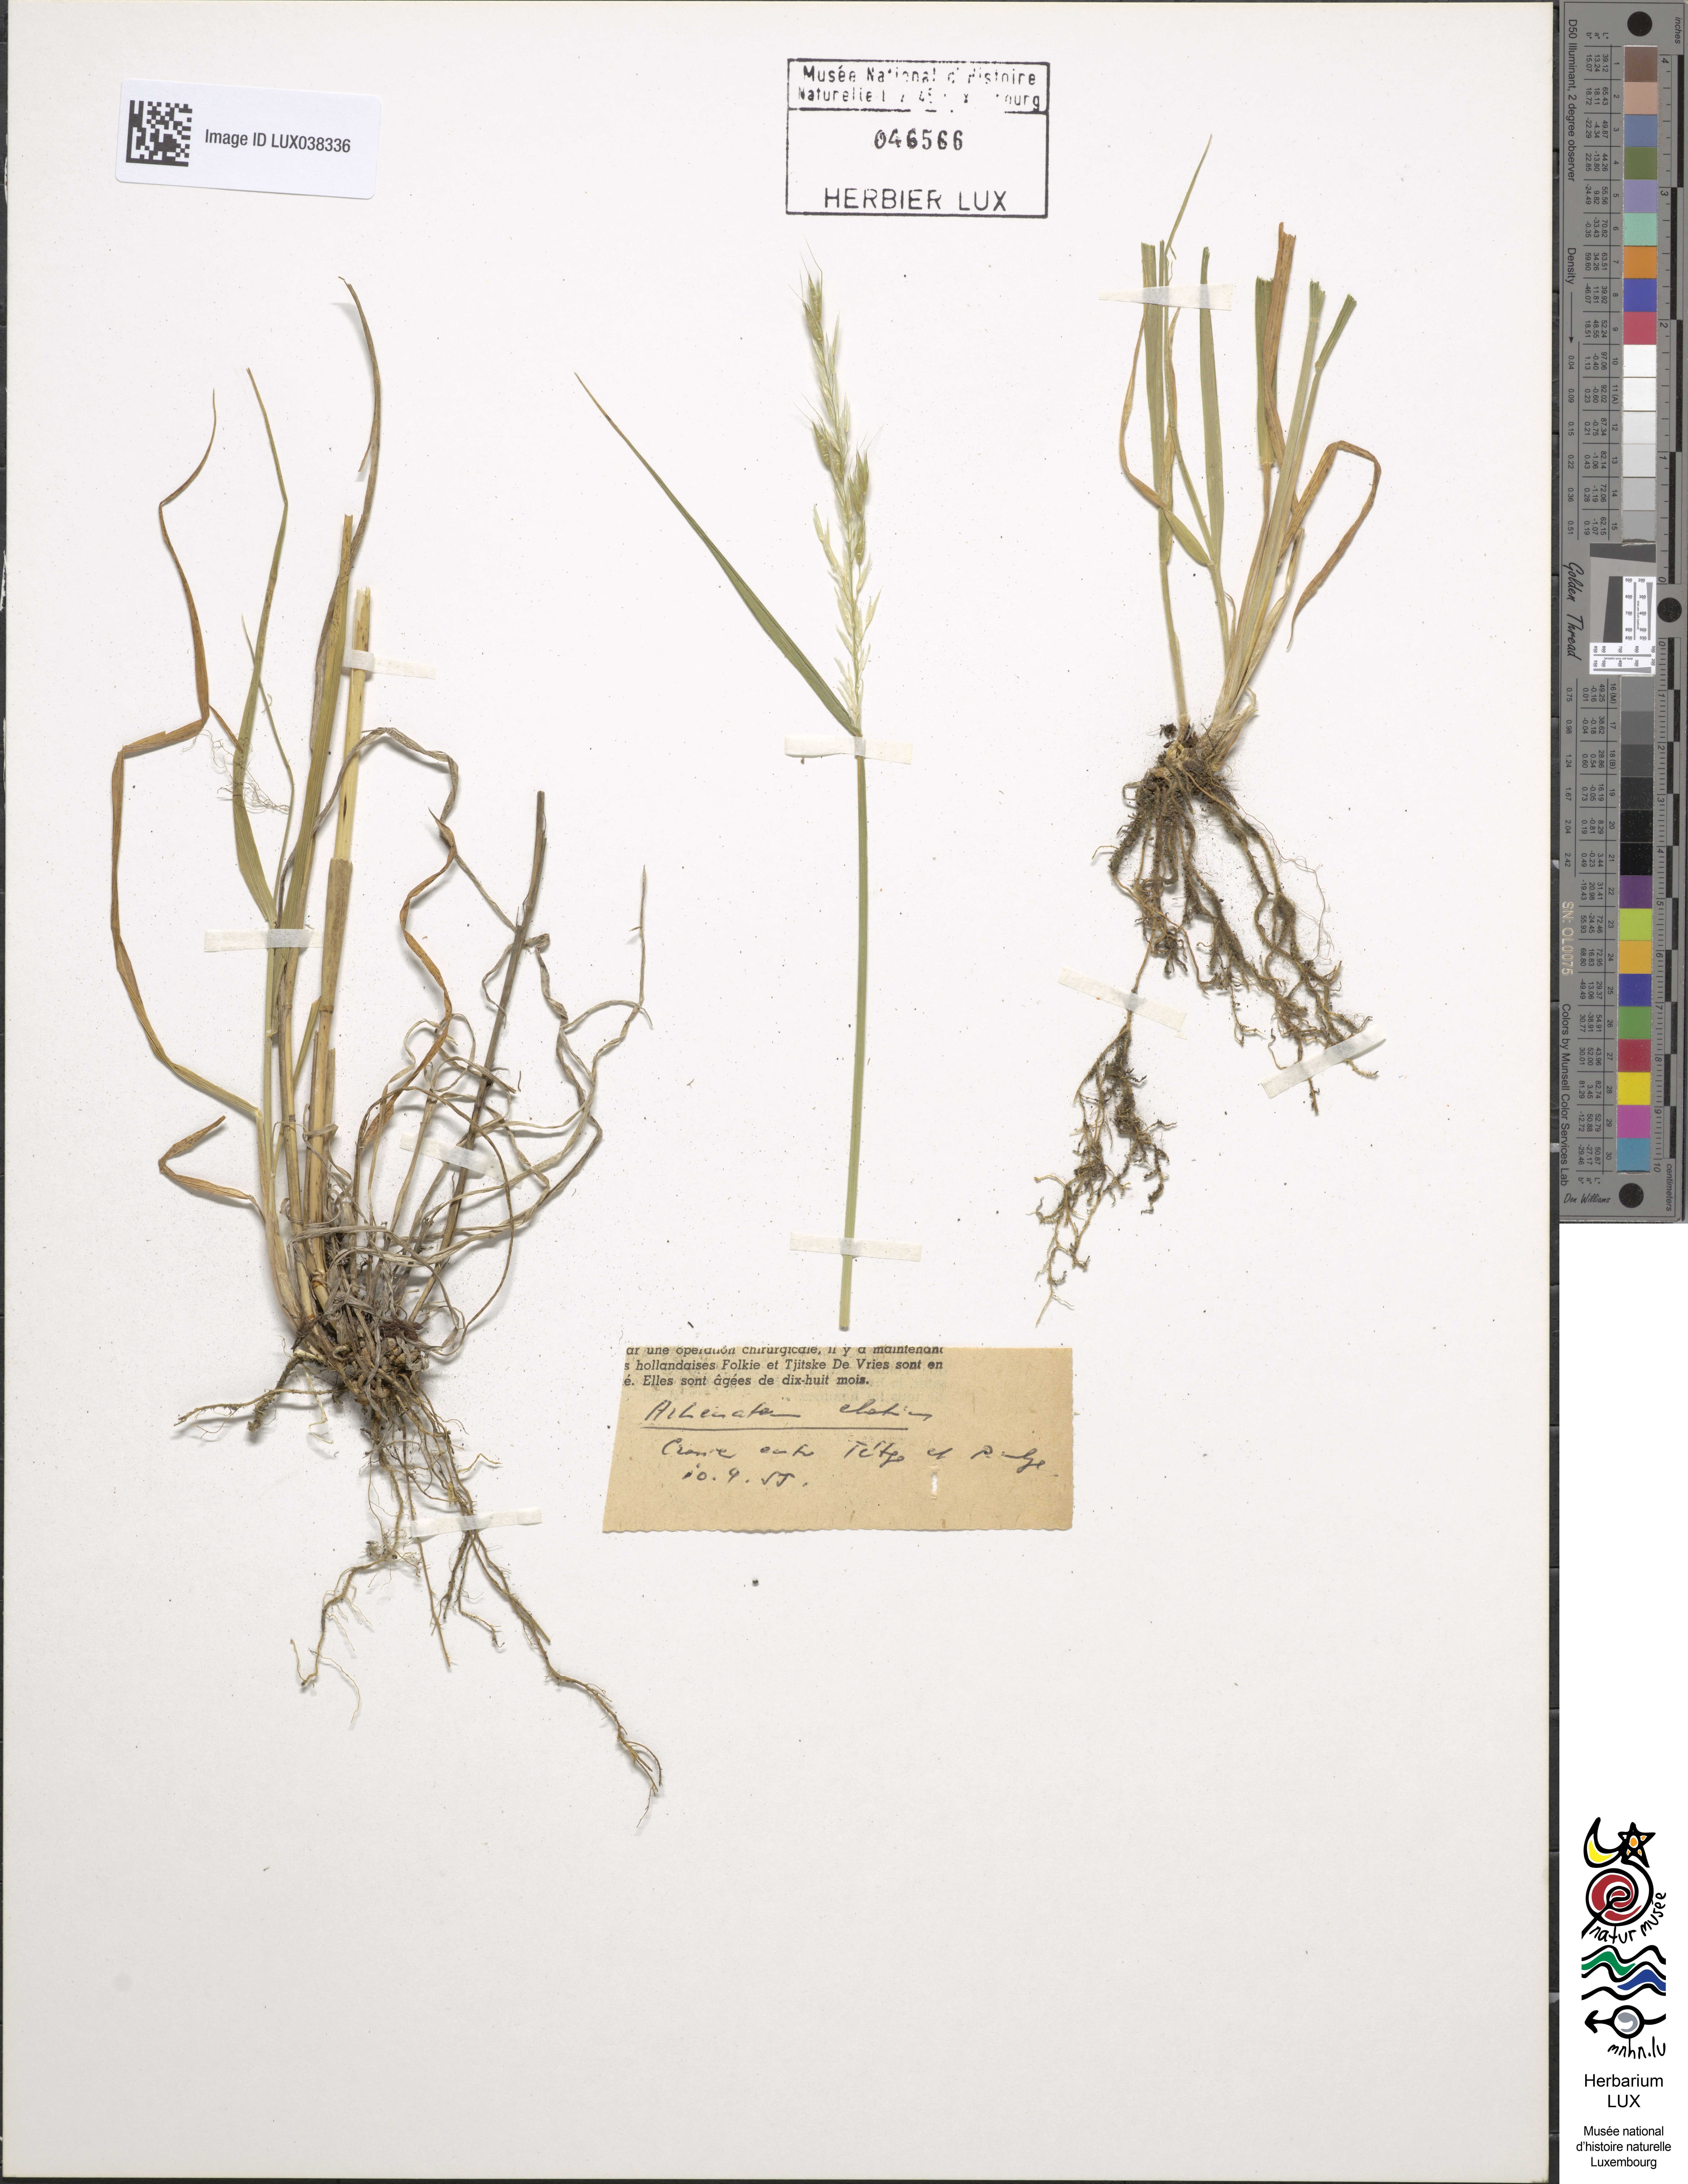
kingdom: Plantae
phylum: Tracheophyta
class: Liliopsida
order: Poales
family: Poaceae
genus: Arrhenatherum
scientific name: Arrhenatherum elatius
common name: Tall oatgrass
